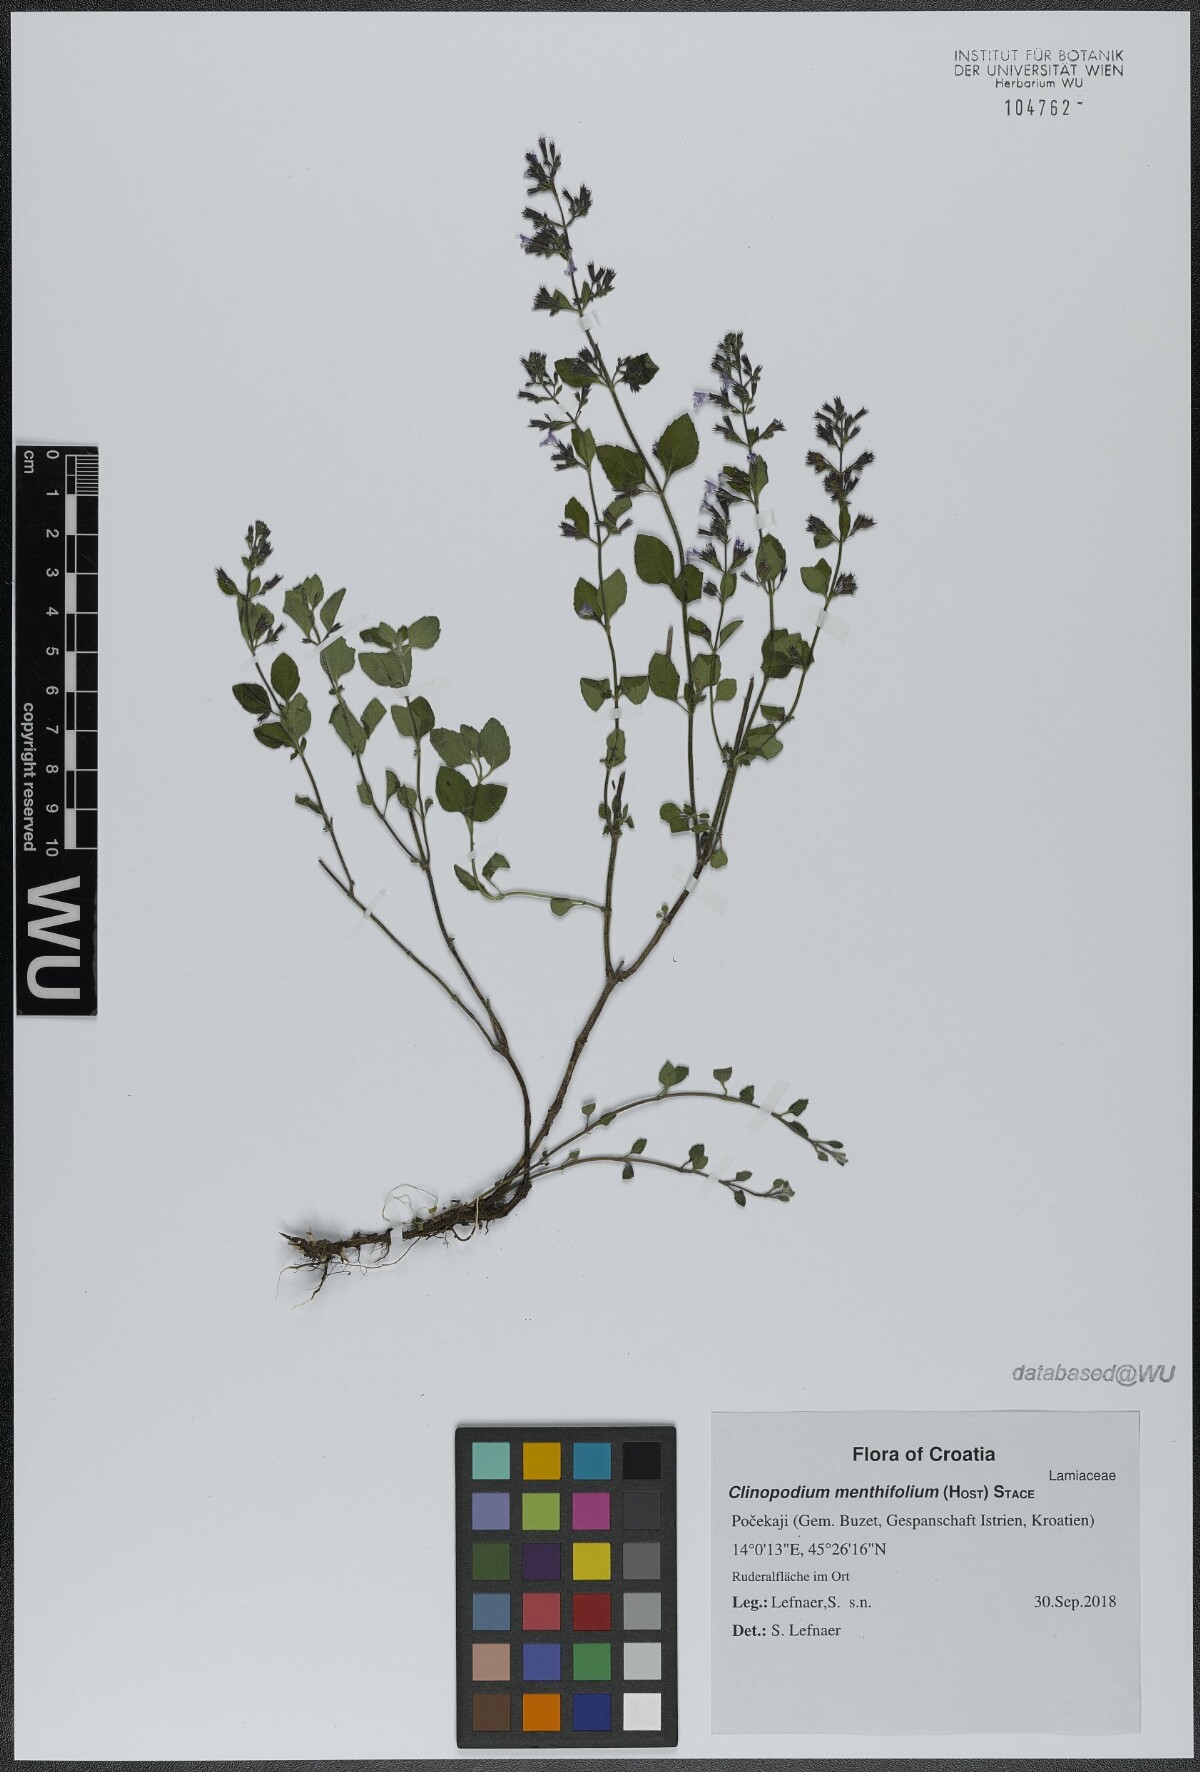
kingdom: Plantae
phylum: Tracheophyta
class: Magnoliopsida
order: Lamiales
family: Lamiaceae
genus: Clinopodium
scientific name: Clinopodium menthifolium
